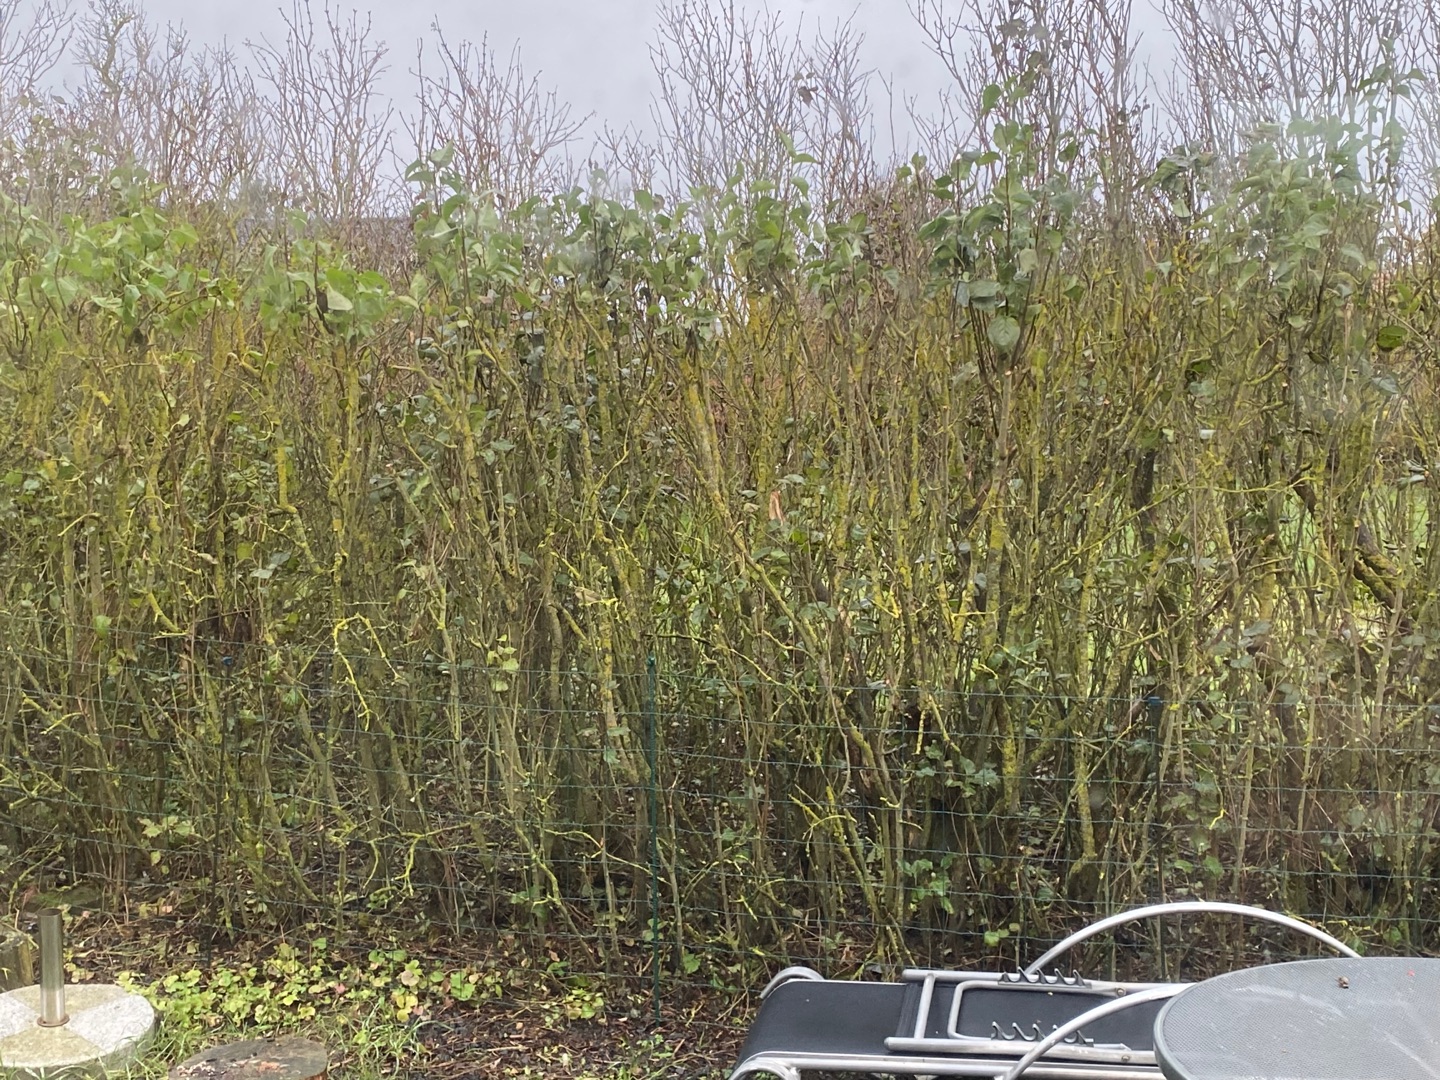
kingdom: Animalia
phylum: Chordata
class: Aves
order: Passeriformes
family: Phylloscopidae
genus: Phylloscopus
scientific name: Phylloscopus collybita
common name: Gransanger
